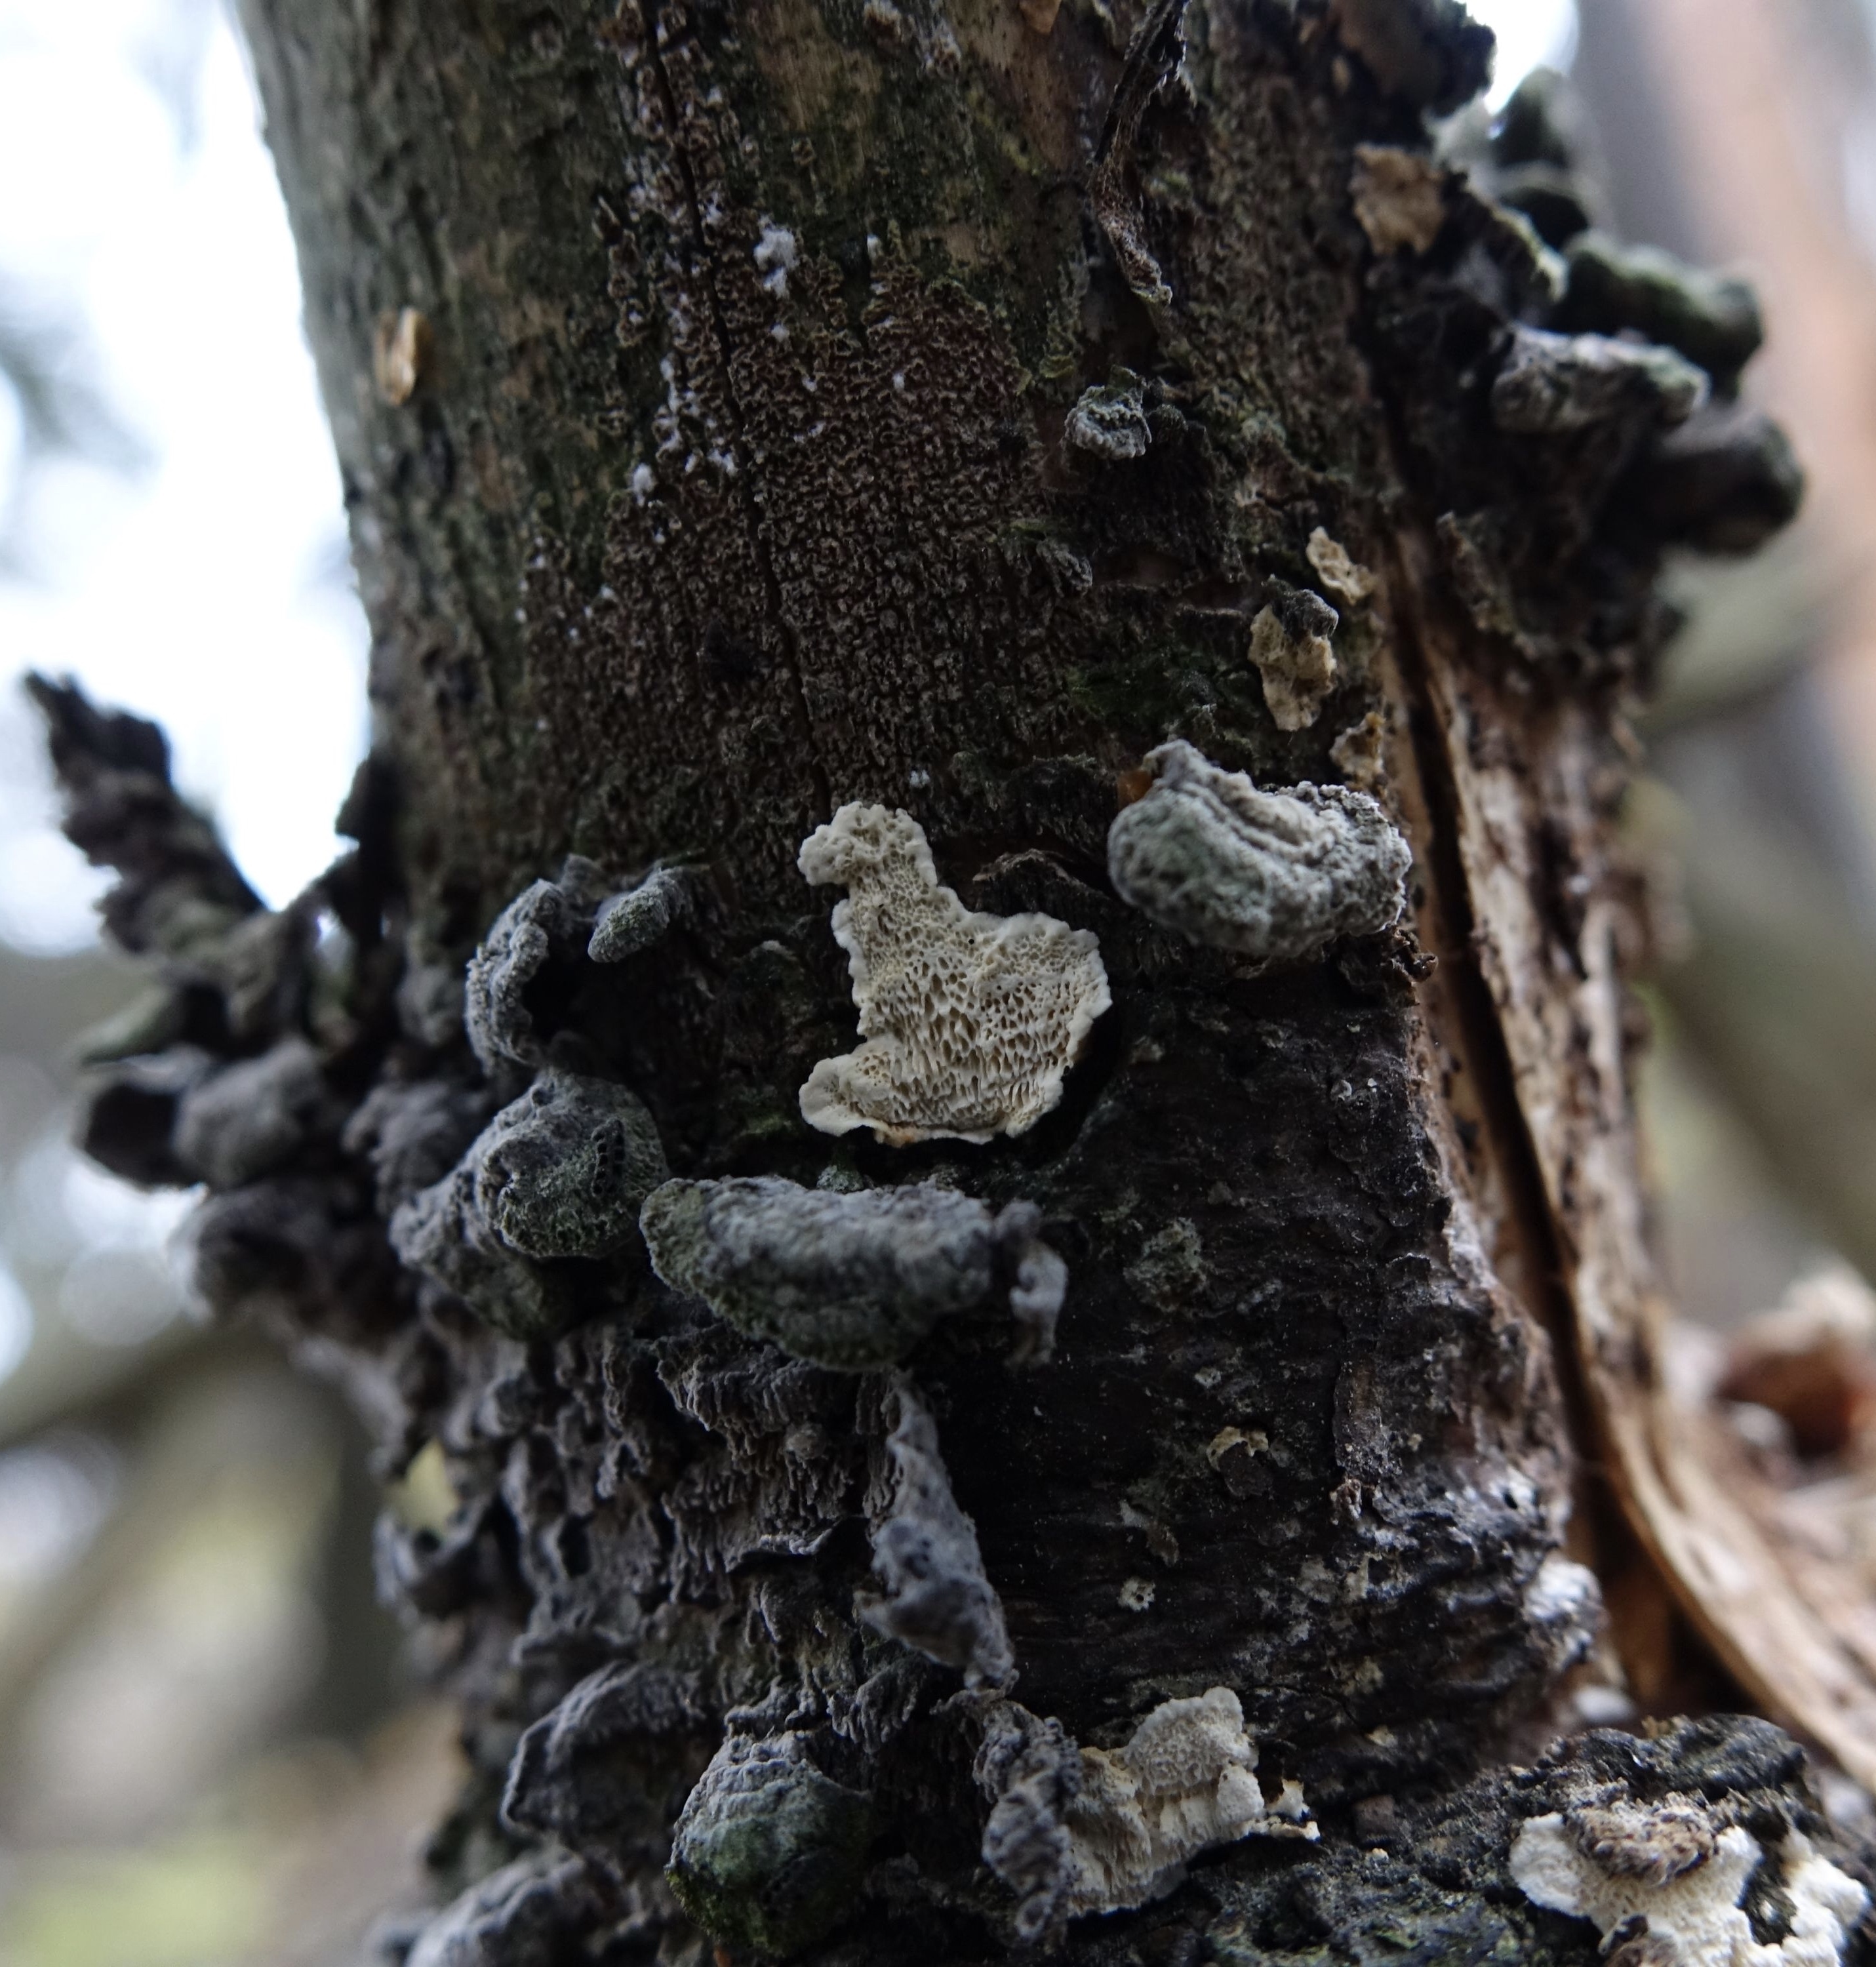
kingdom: Fungi
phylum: Basidiomycota
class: Agaricomycetes
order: Polyporales
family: Steccherinaceae
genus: Antrodiella
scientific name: Antrodiella parasitica
